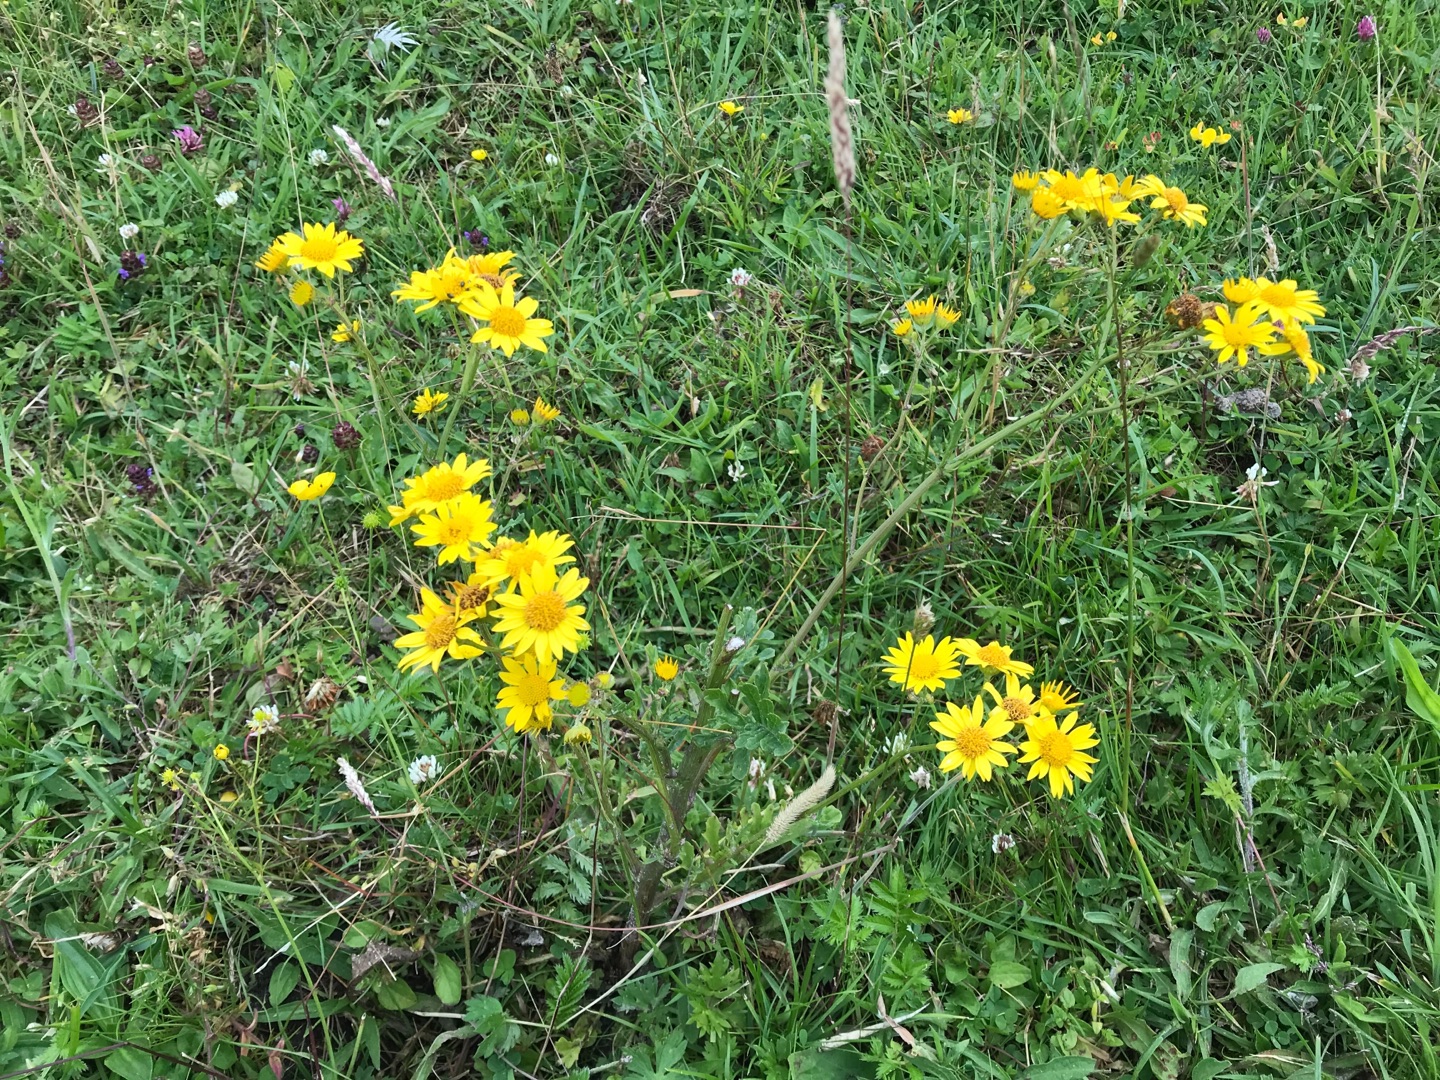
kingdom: Plantae
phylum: Tracheophyta
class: Magnoliopsida
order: Asterales
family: Asteraceae
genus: Jacobaea
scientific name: Jacobaea aquatica
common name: Vand-brandbæger
